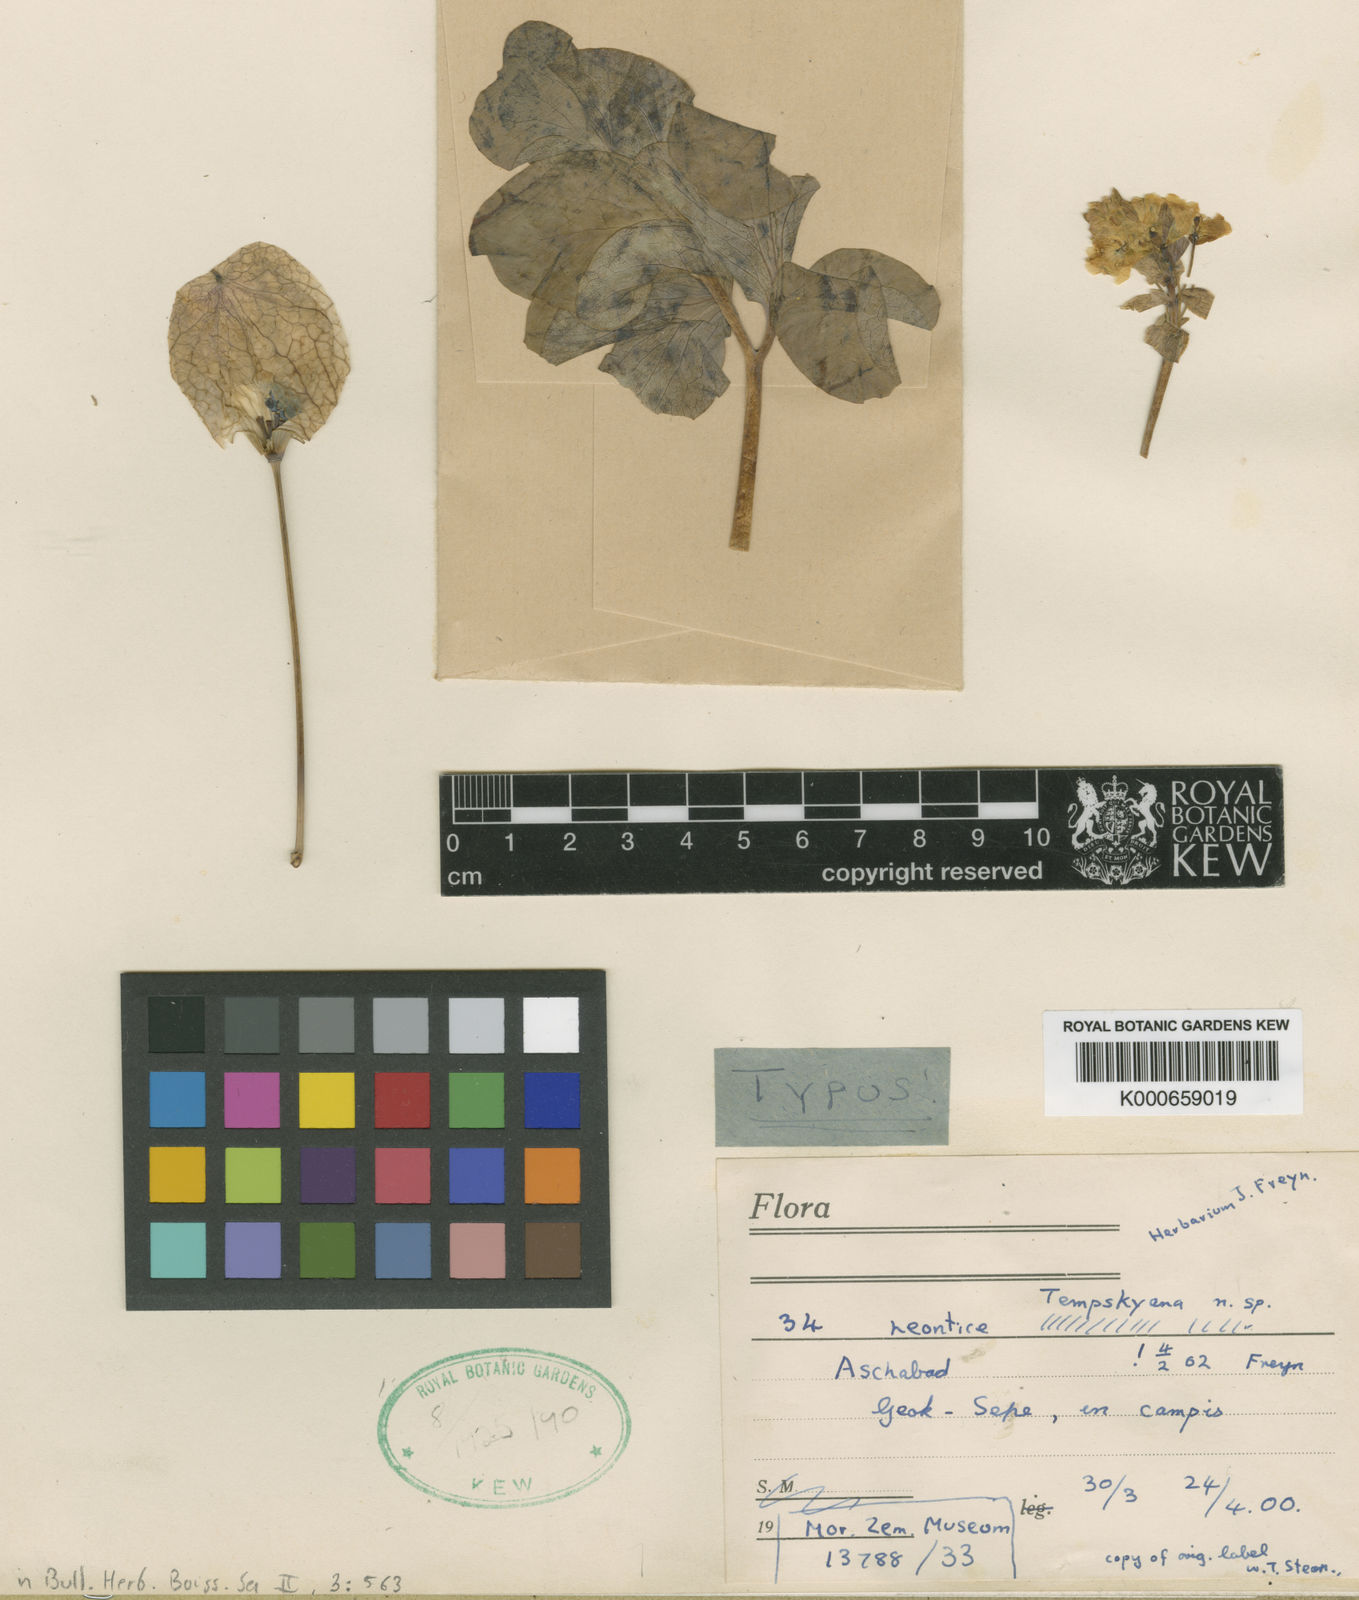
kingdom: Plantae
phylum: Tracheophyta
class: Magnoliopsida
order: Ranunculales
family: Berberidaceae
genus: Leontice
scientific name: Leontice incerta
